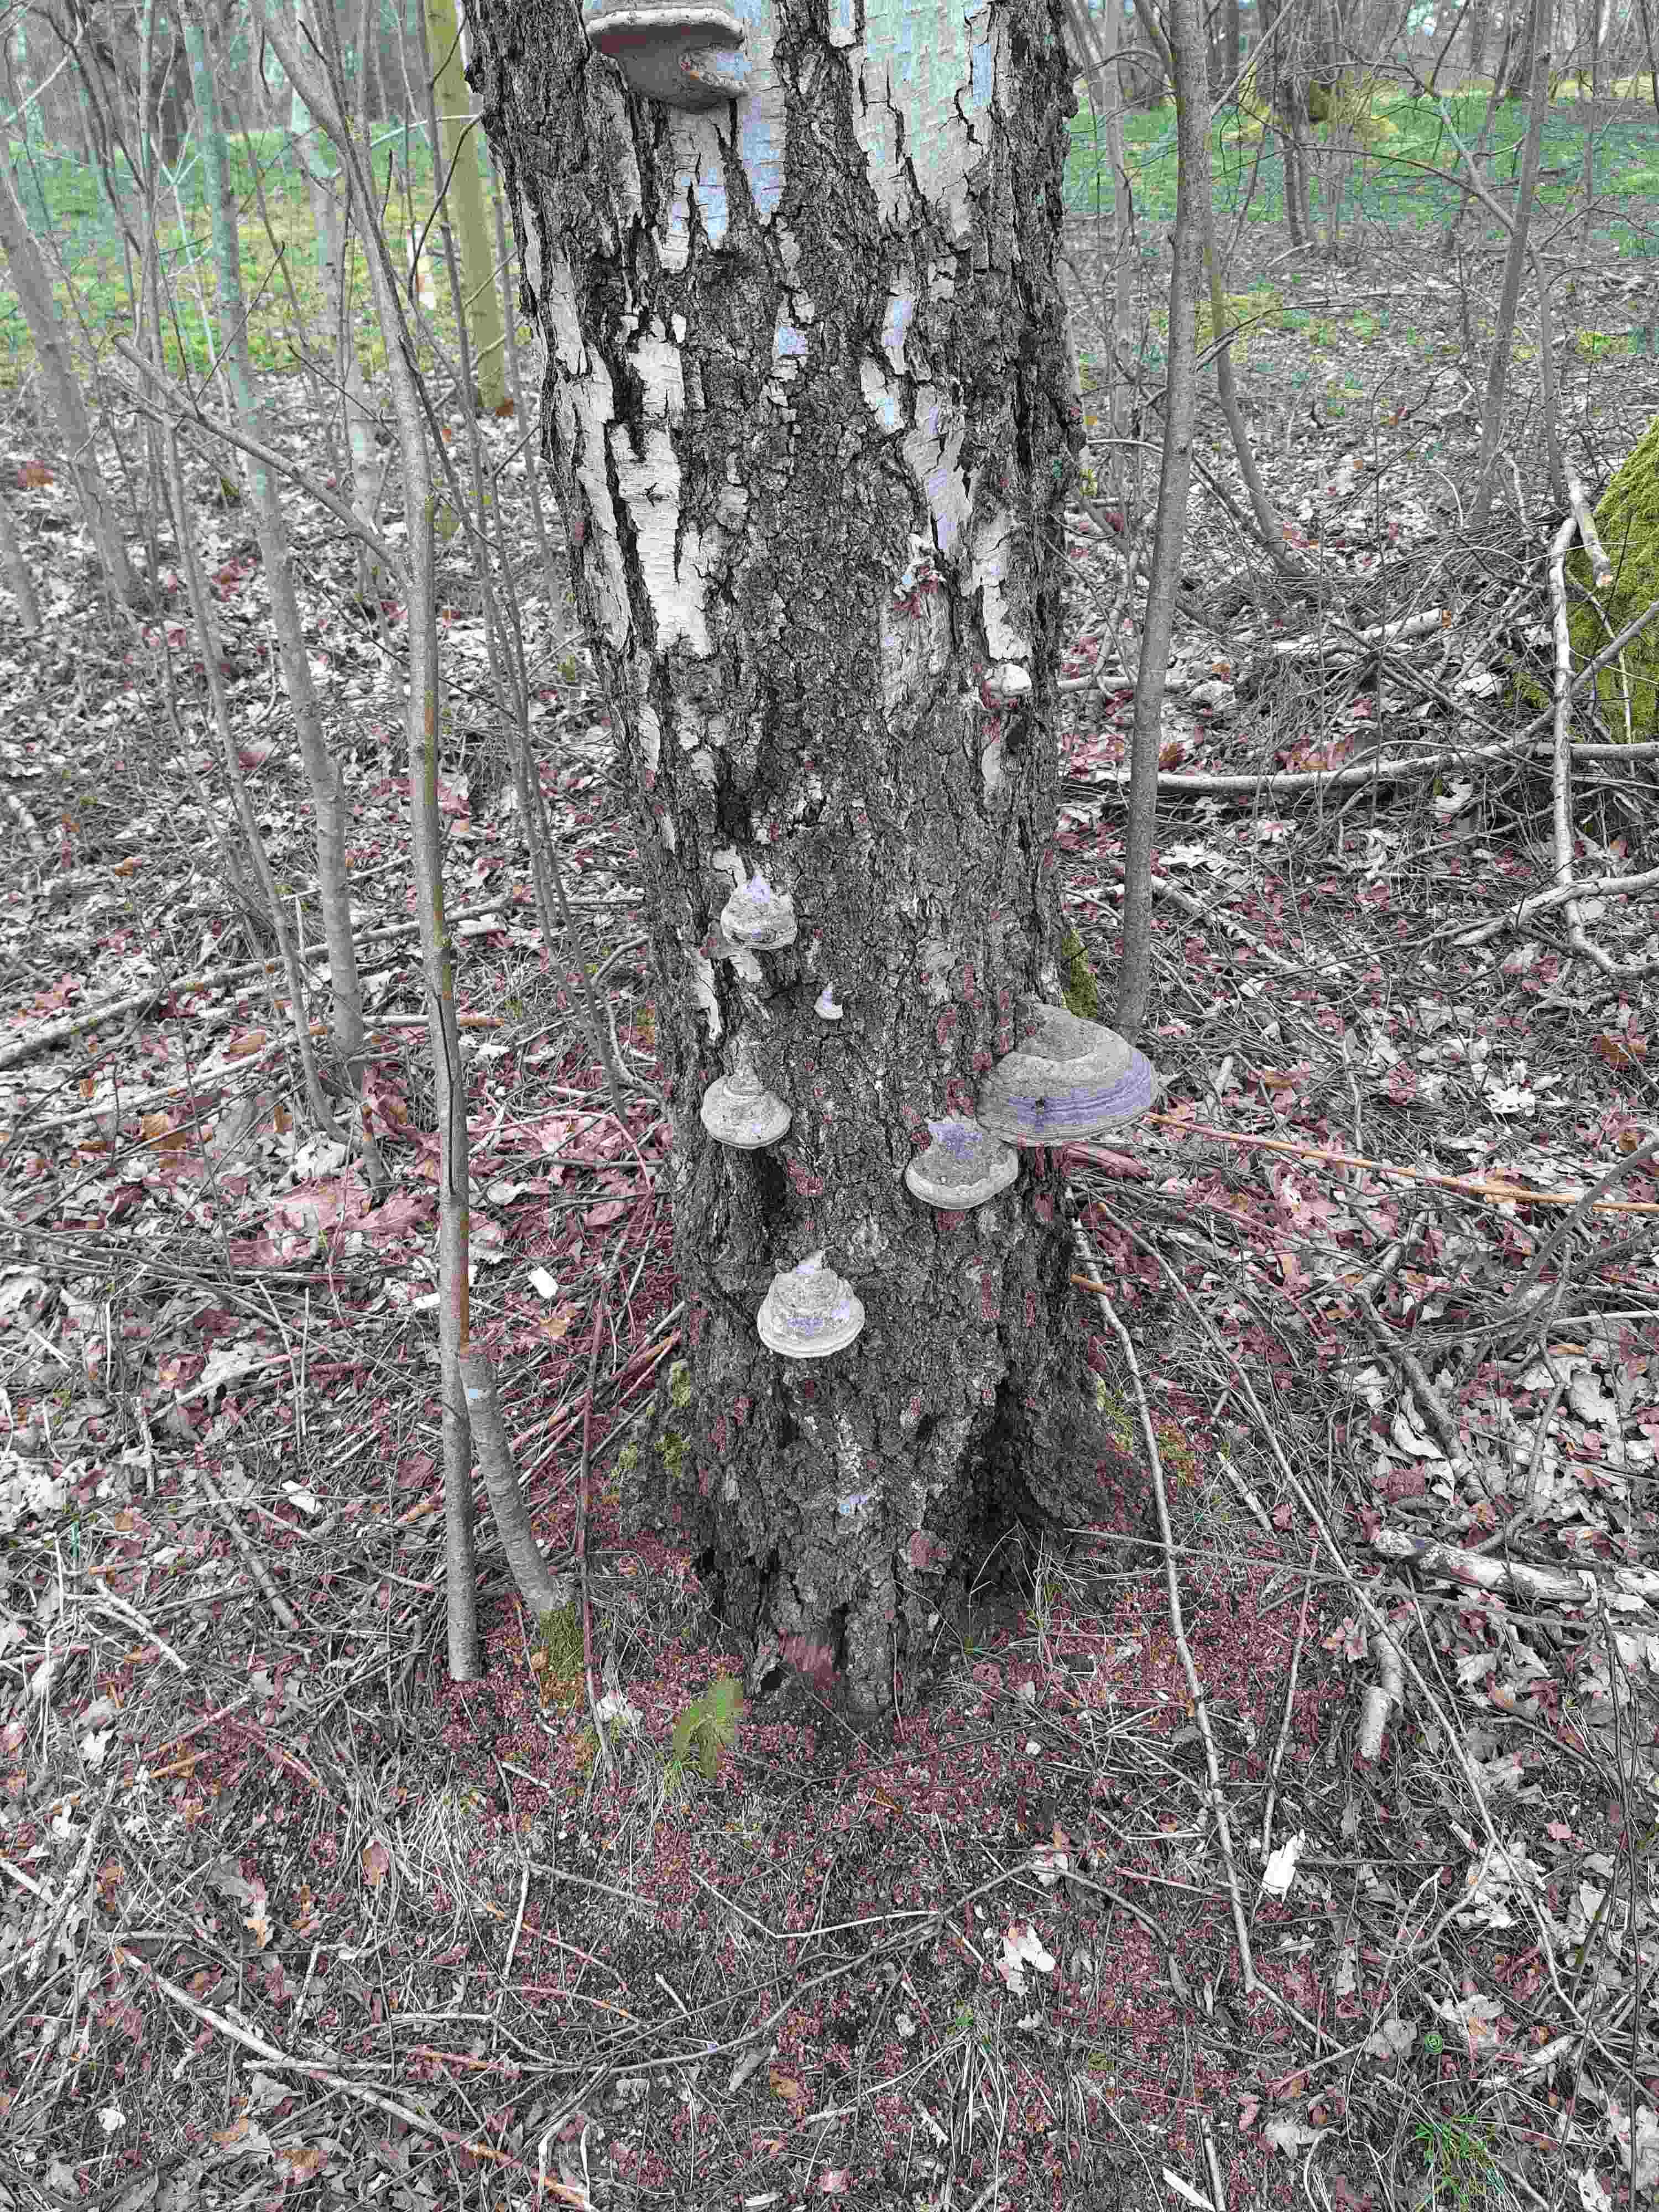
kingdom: Fungi
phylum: Basidiomycota
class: Agaricomycetes
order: Polyporales
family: Polyporaceae
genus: Fomes
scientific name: Fomes fomentarius
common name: tøndersvamp
